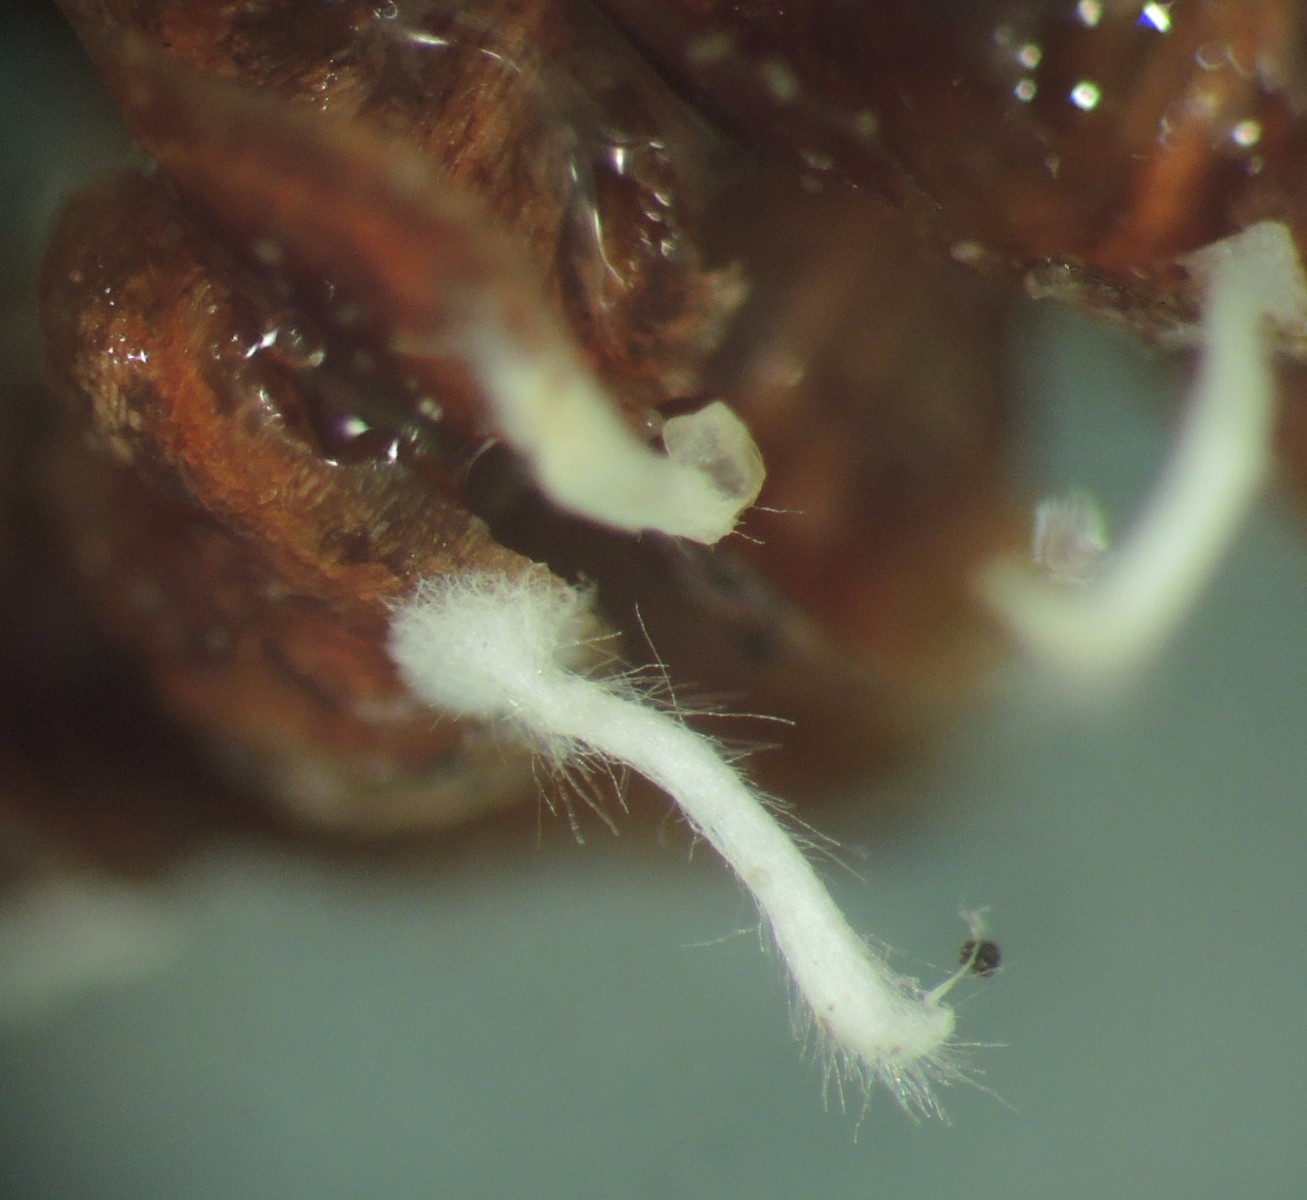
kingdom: Fungi
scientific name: Fungi
